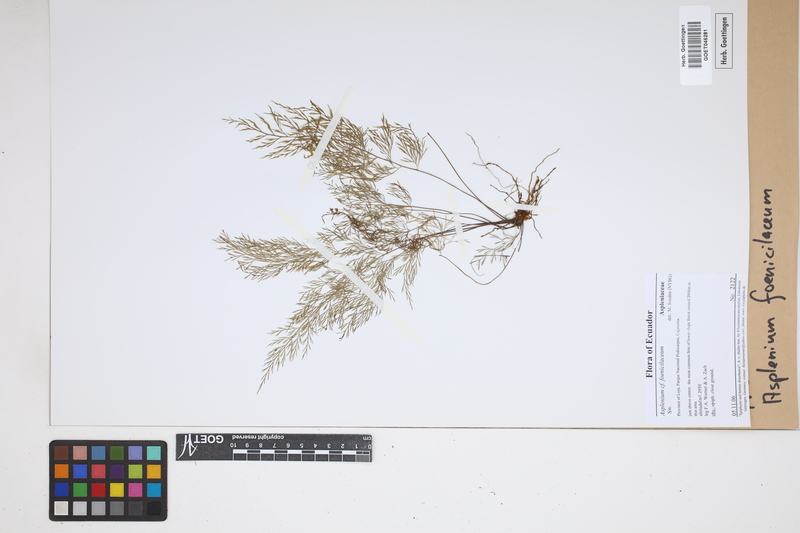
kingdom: Plantae
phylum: Tracheophyta
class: Polypodiopsida
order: Polypodiales
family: Aspleniaceae
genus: Asplenium
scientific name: Asplenium fragrans
